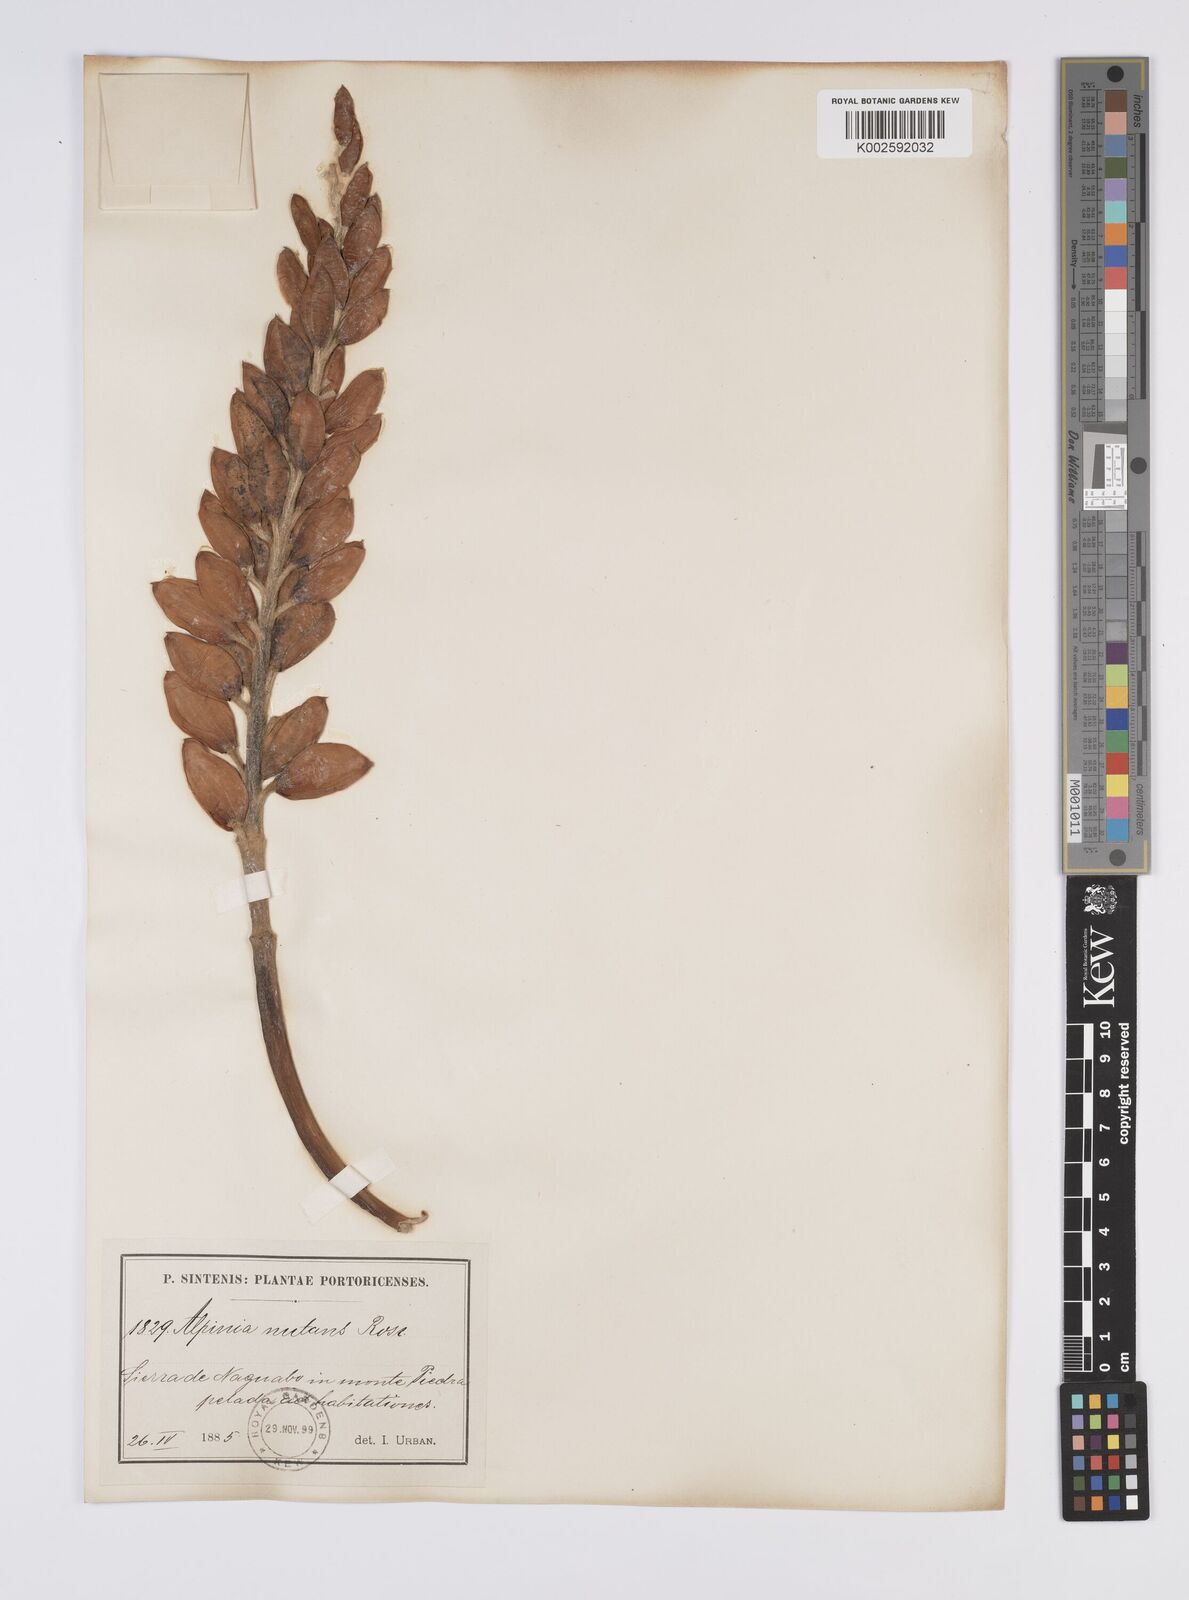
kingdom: Plantae
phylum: Tracheophyta
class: Liliopsida
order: Zingiberales
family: Zingiberaceae
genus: Alpinia
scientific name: Alpinia zerumbet
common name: Shellplant
